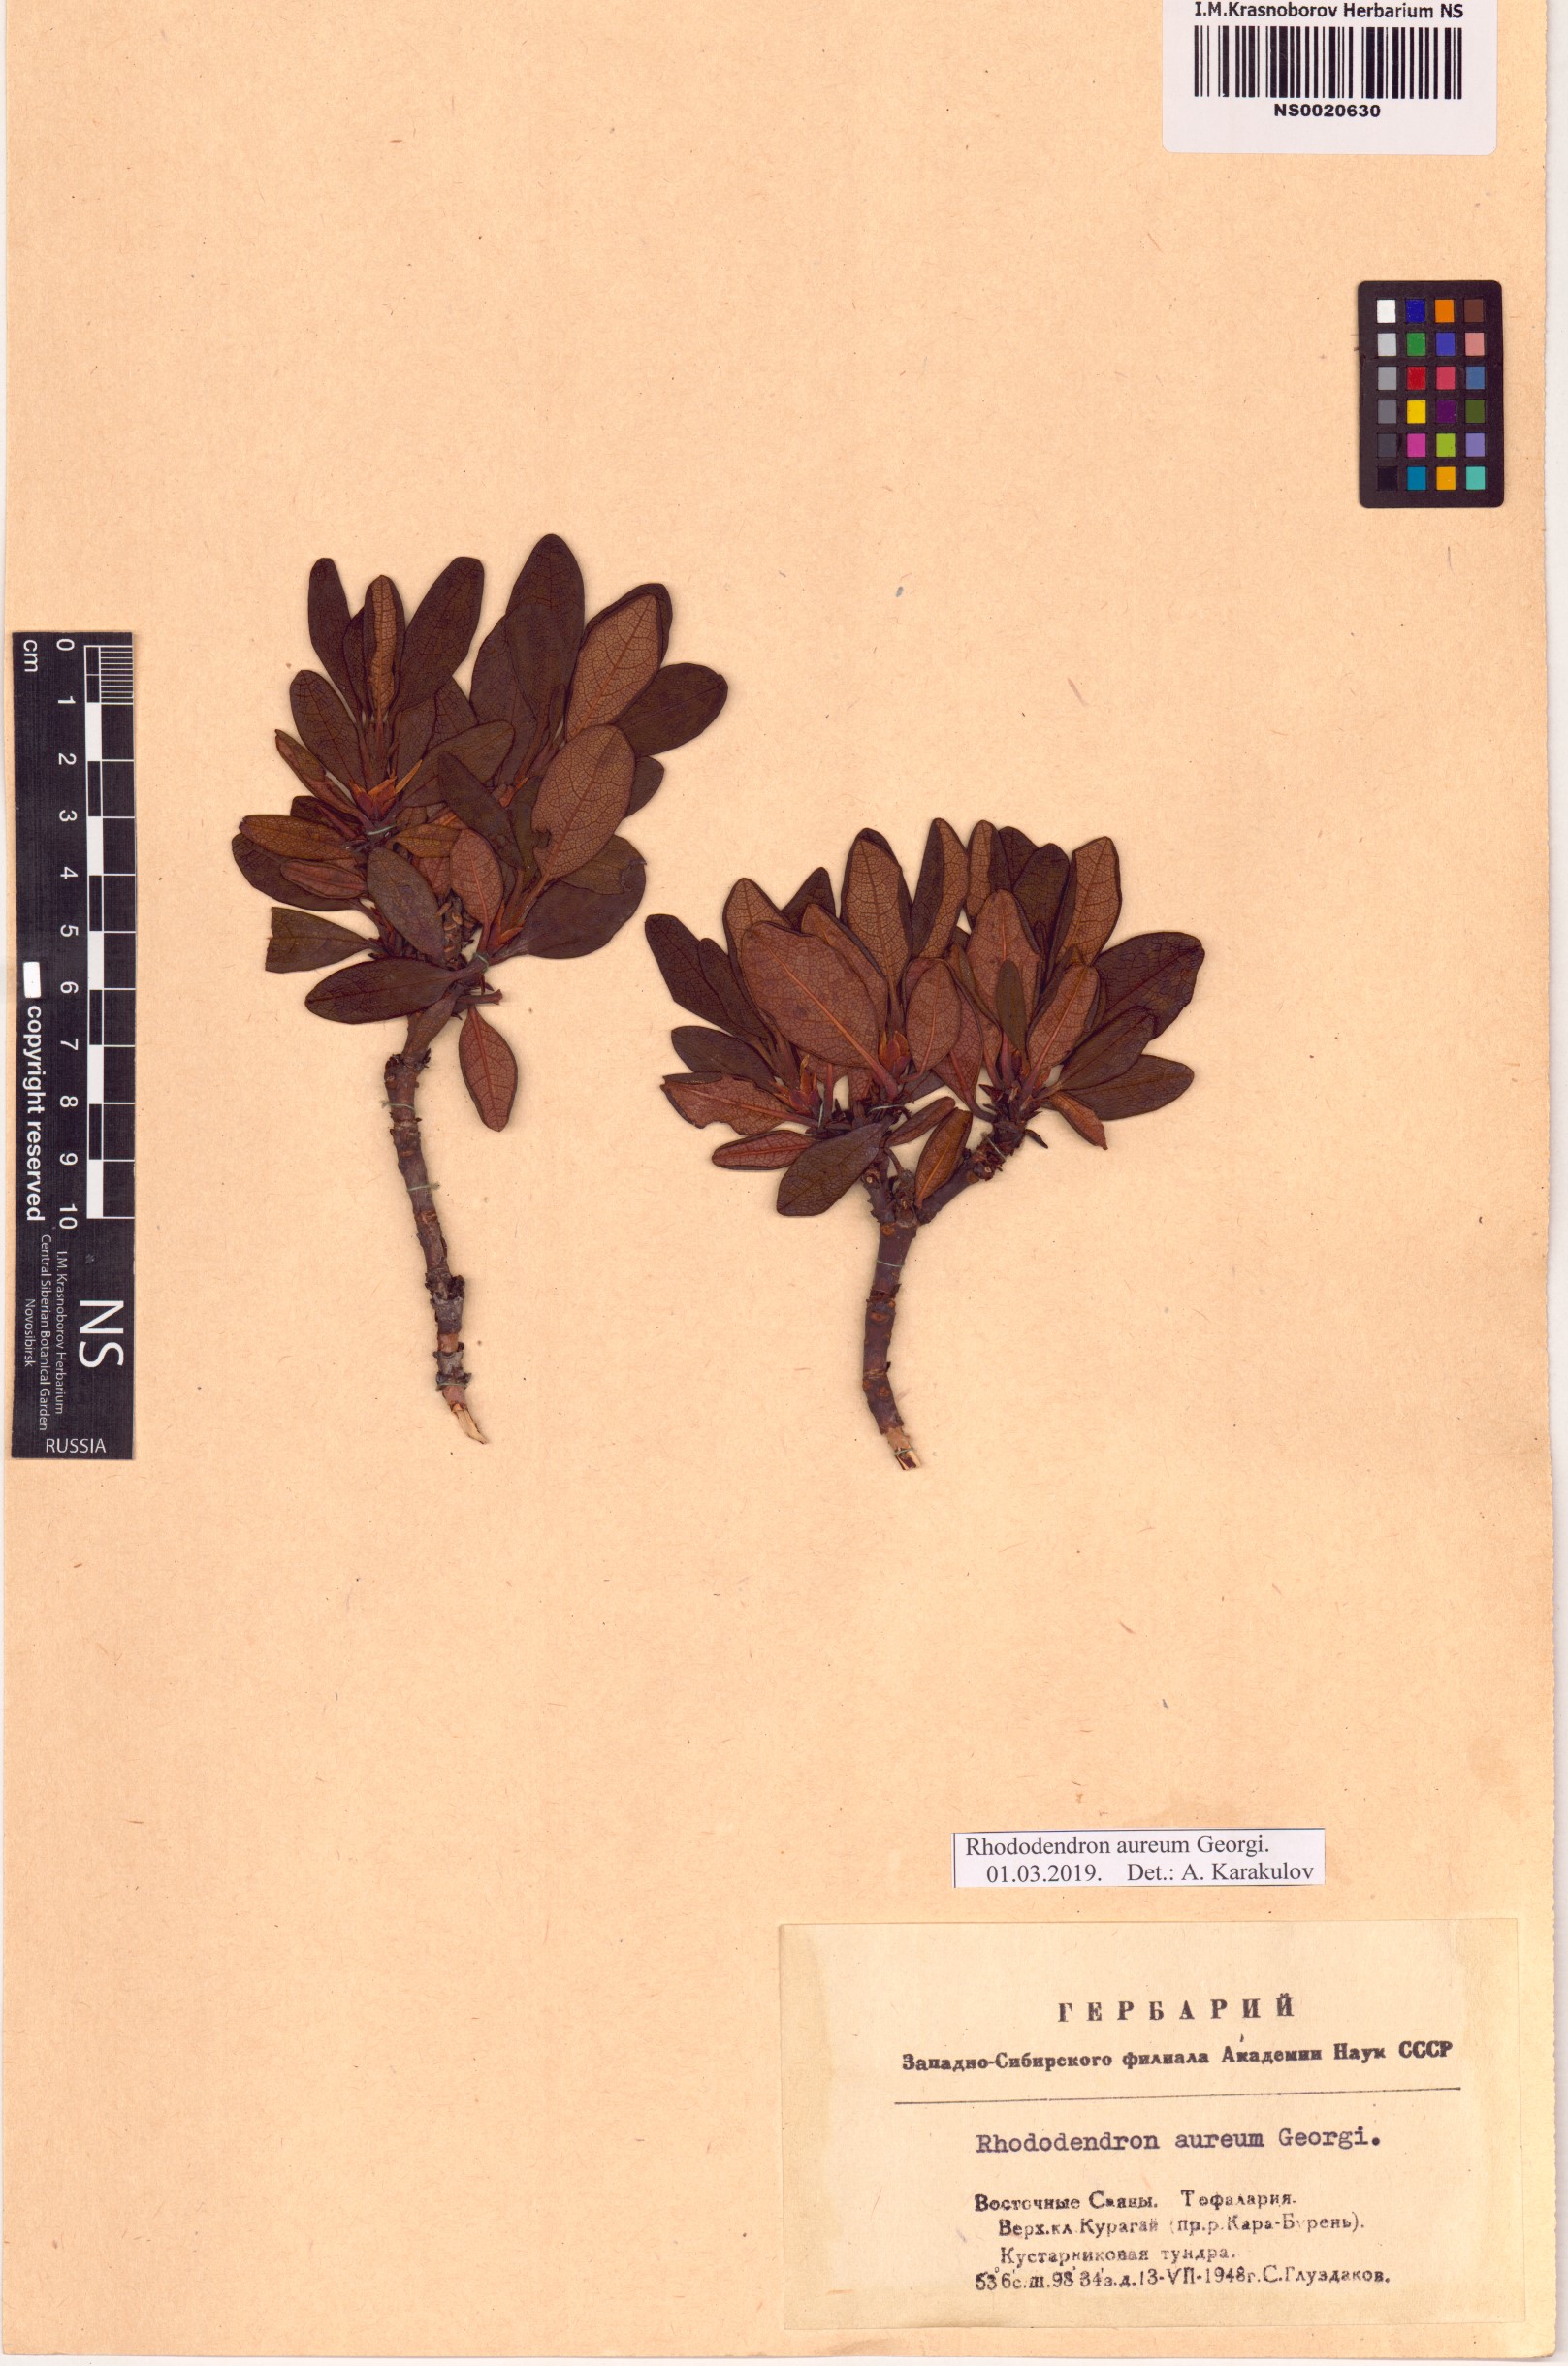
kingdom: Plantae
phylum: Tracheophyta
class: Magnoliopsida
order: Ericales
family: Ericaceae
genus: Rhododendron
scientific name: Rhododendron aureum
